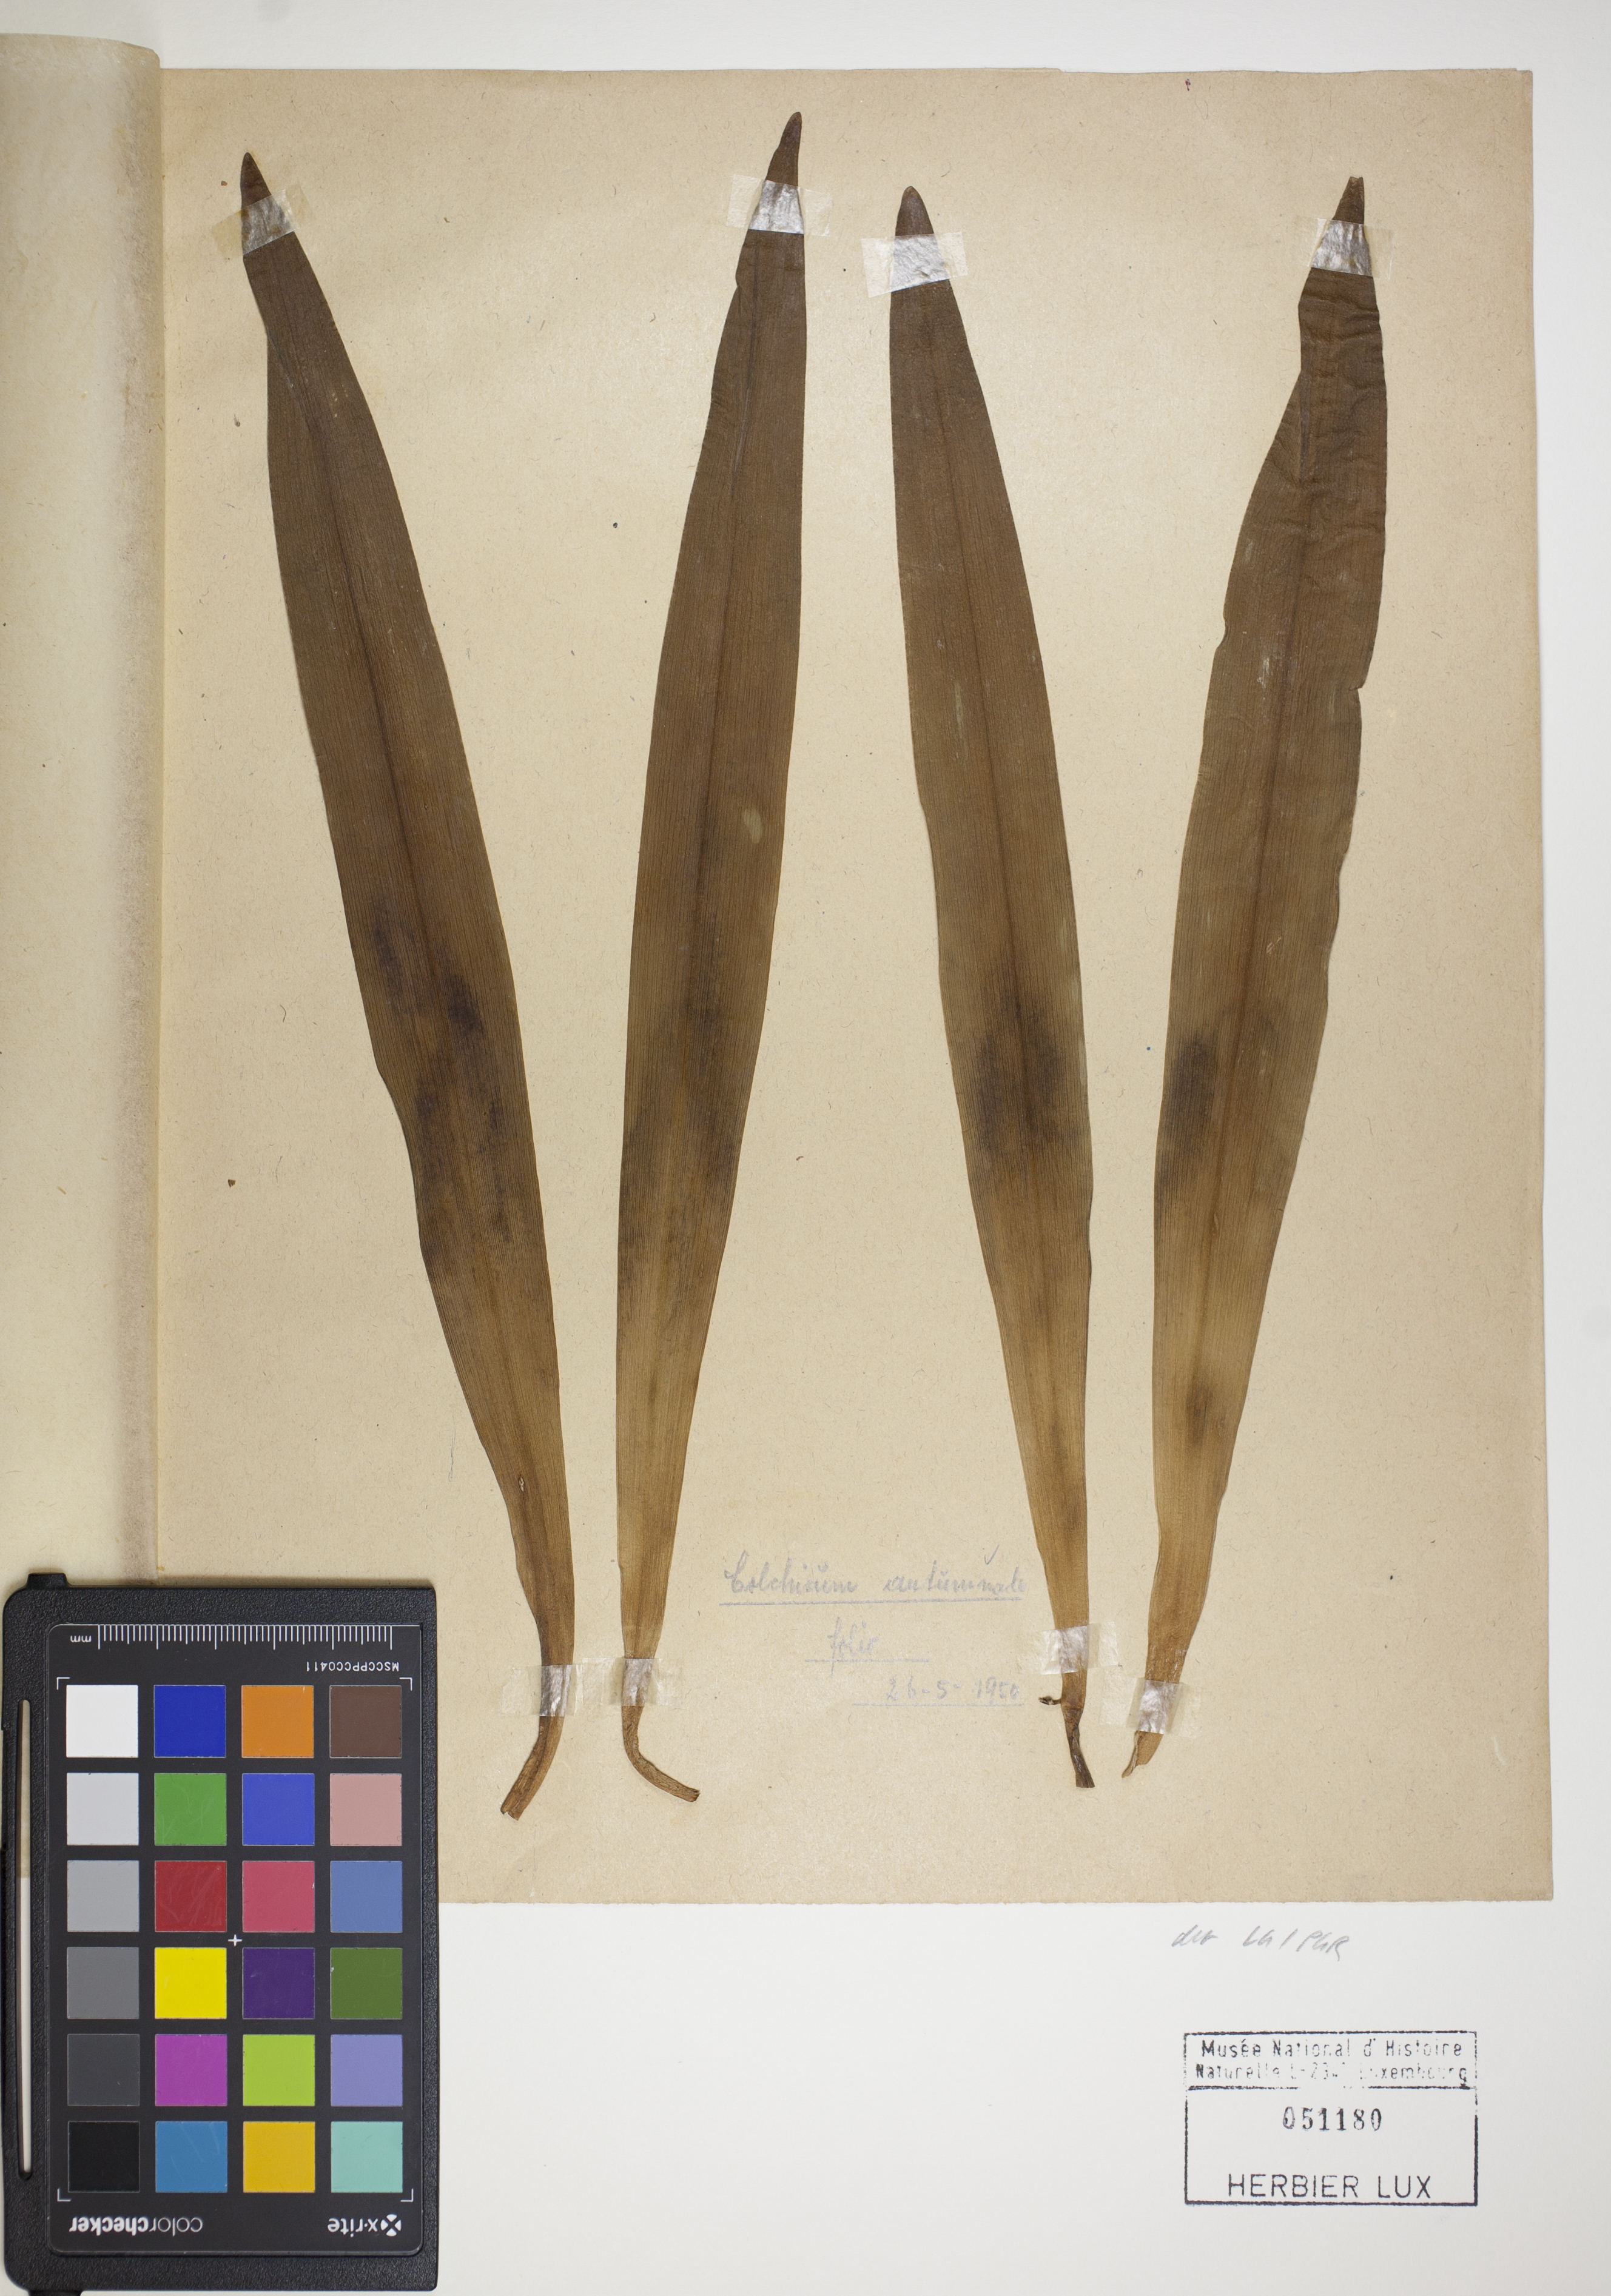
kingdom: Plantae
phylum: Tracheophyta
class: Liliopsida
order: Liliales
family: Colchicaceae
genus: Colchicum
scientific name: Colchicum autumnale
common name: Autumn crocus
